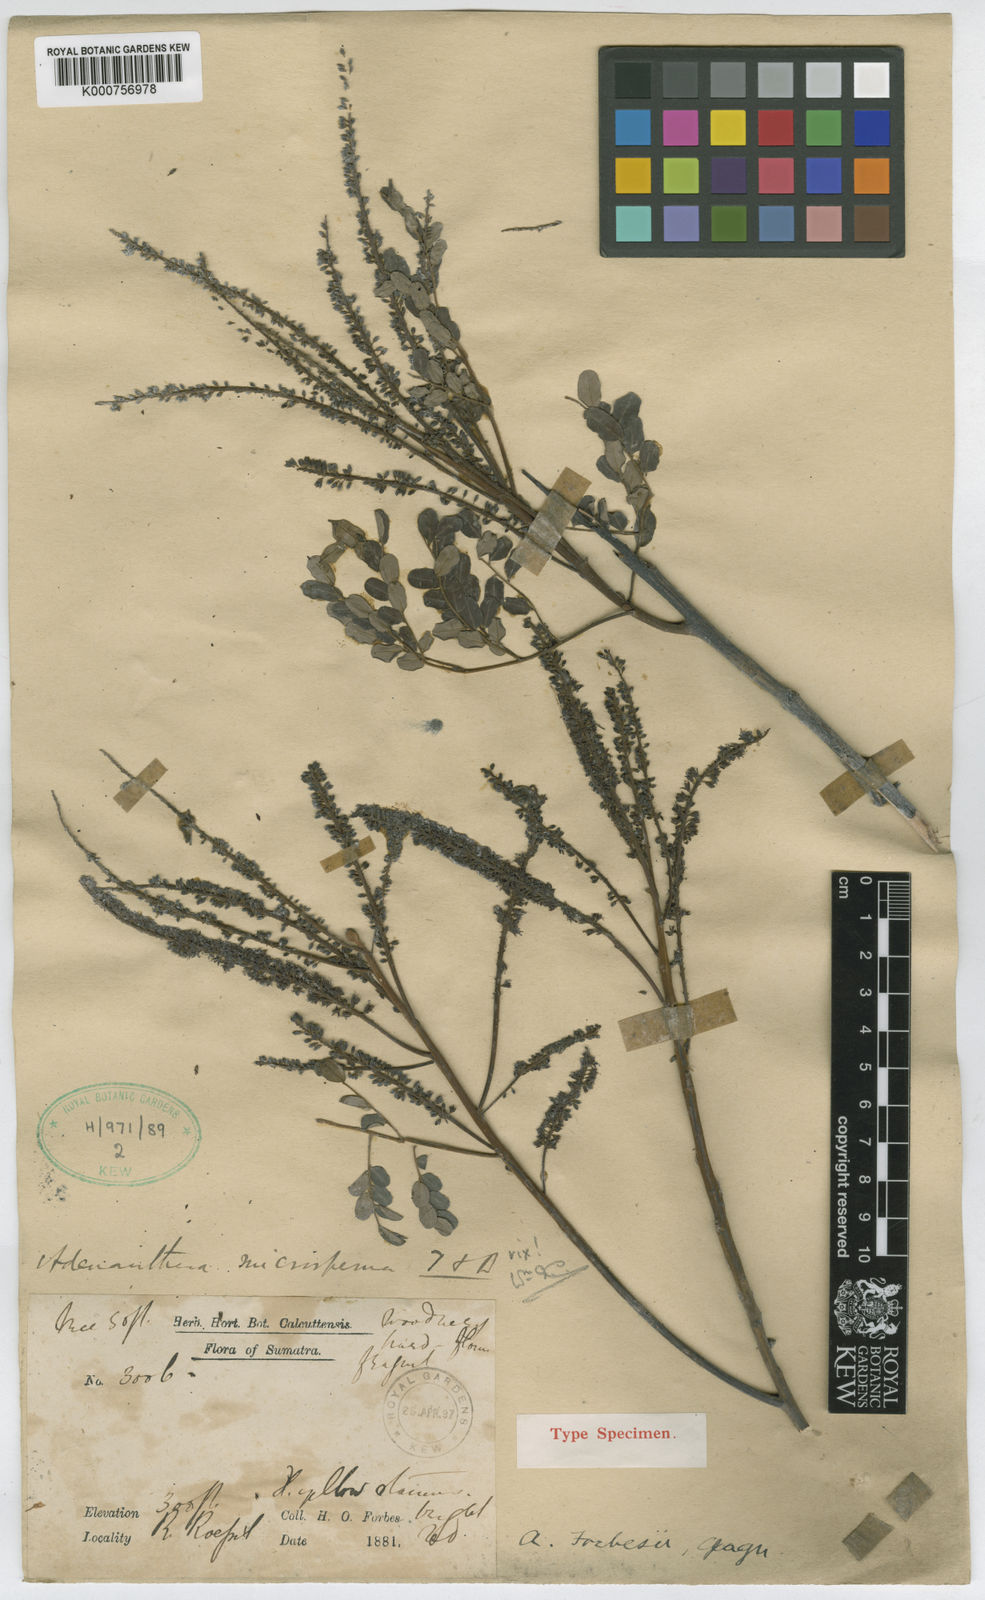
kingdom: Plantae
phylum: Tracheophyta
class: Magnoliopsida
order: Fabales
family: Fabaceae
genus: Adenanthera
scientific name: Adenanthera forbesii
